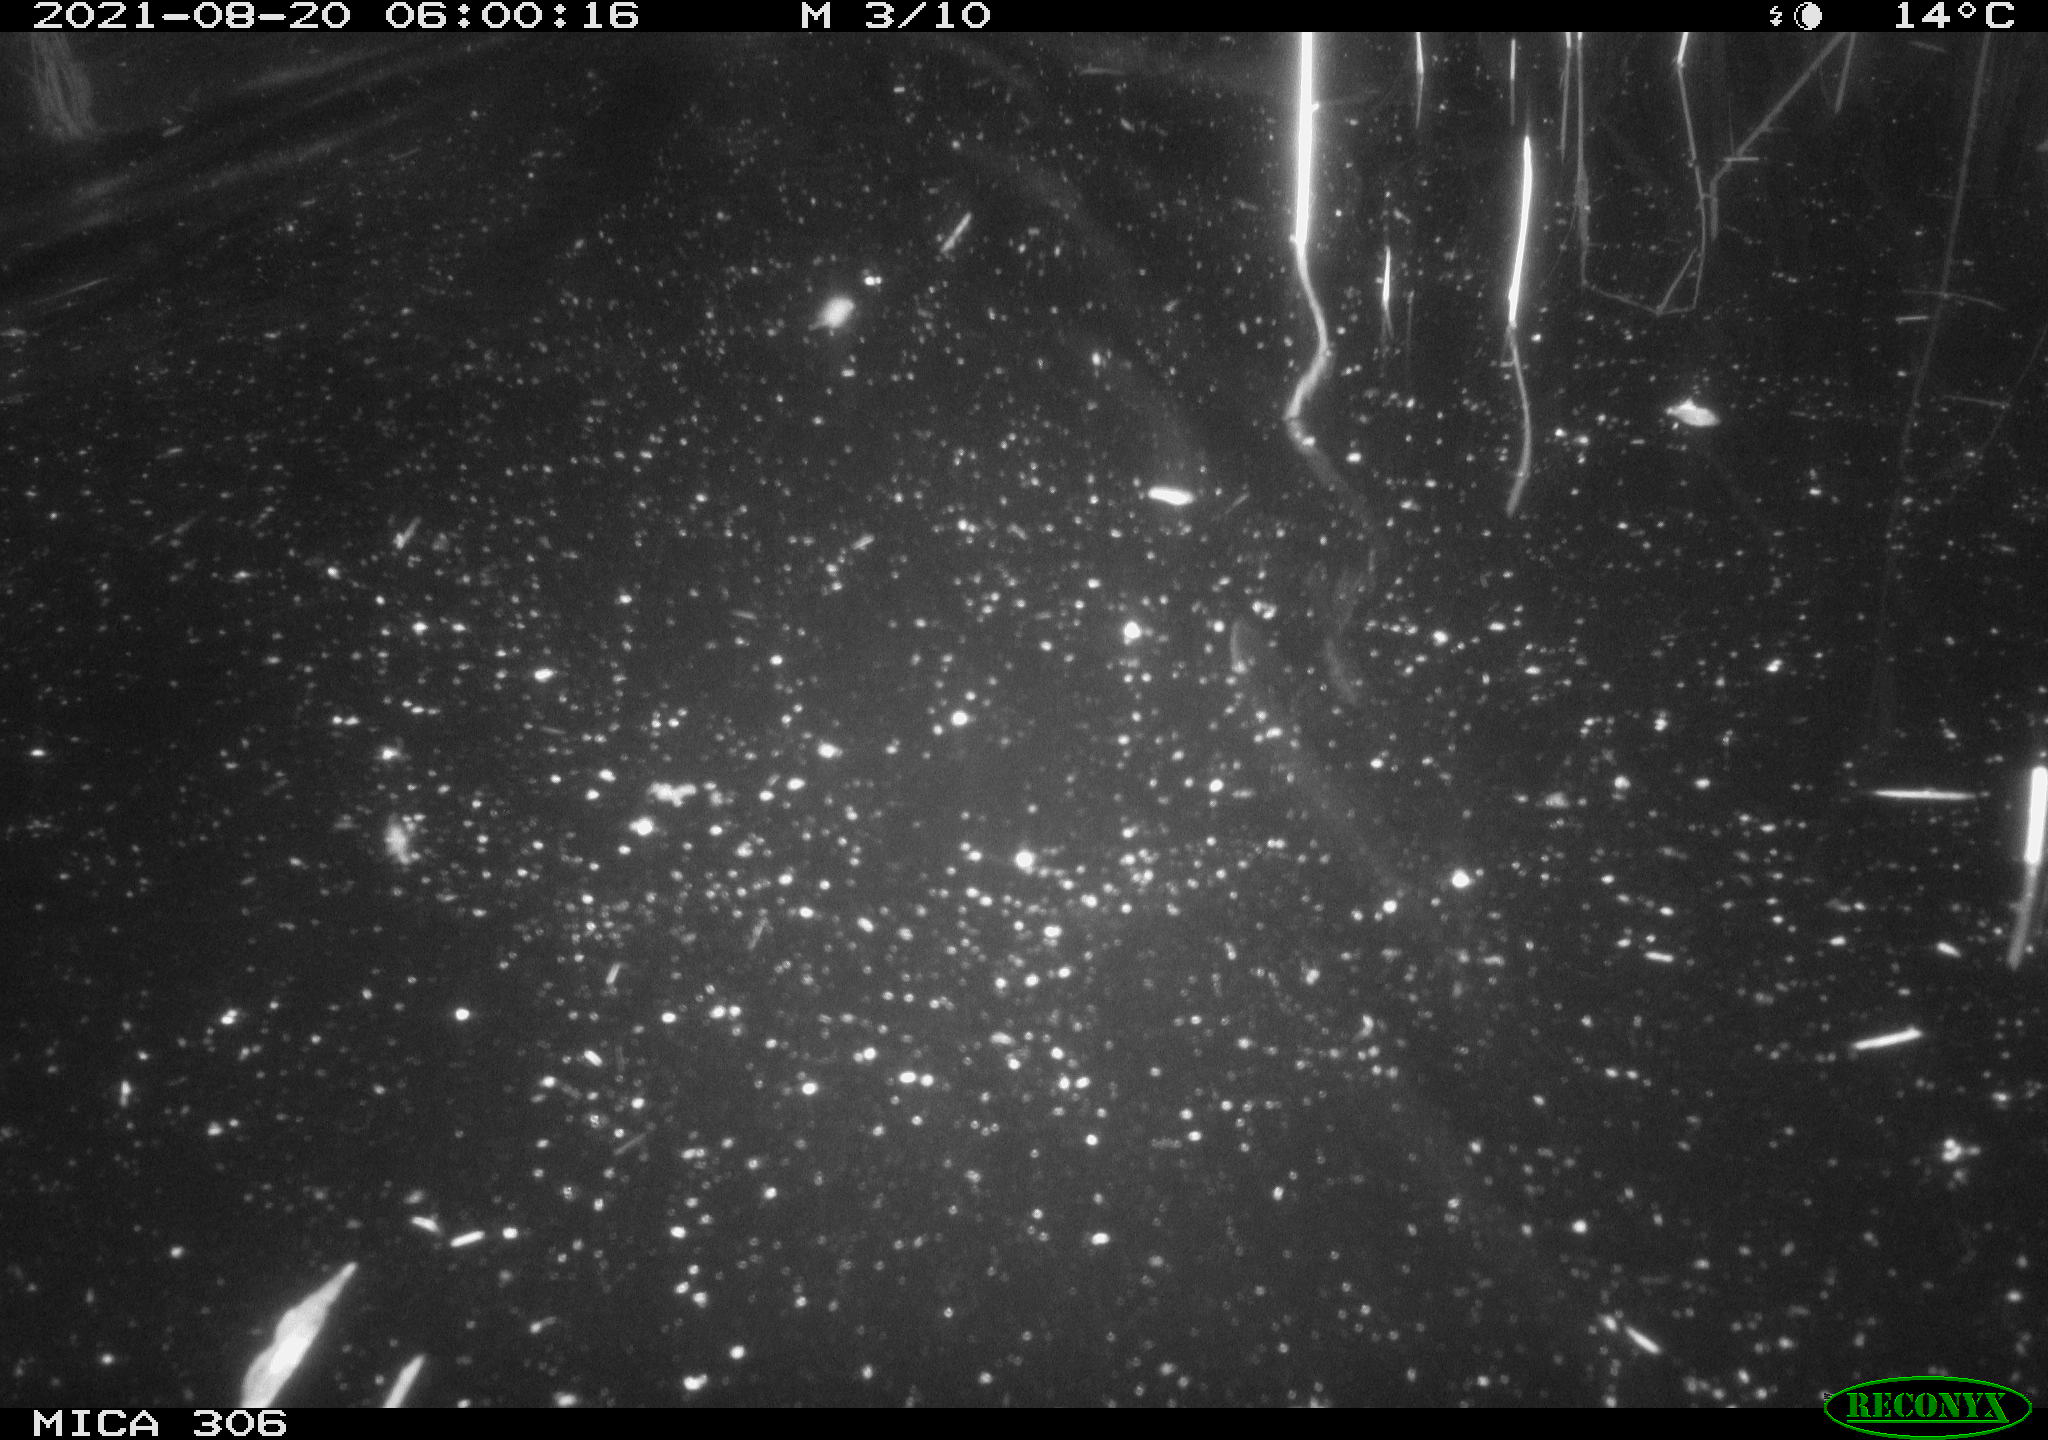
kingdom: Animalia
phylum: Chordata
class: Aves
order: Anseriformes
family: Anatidae
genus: Anas
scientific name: Anas platyrhynchos
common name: Mallard
